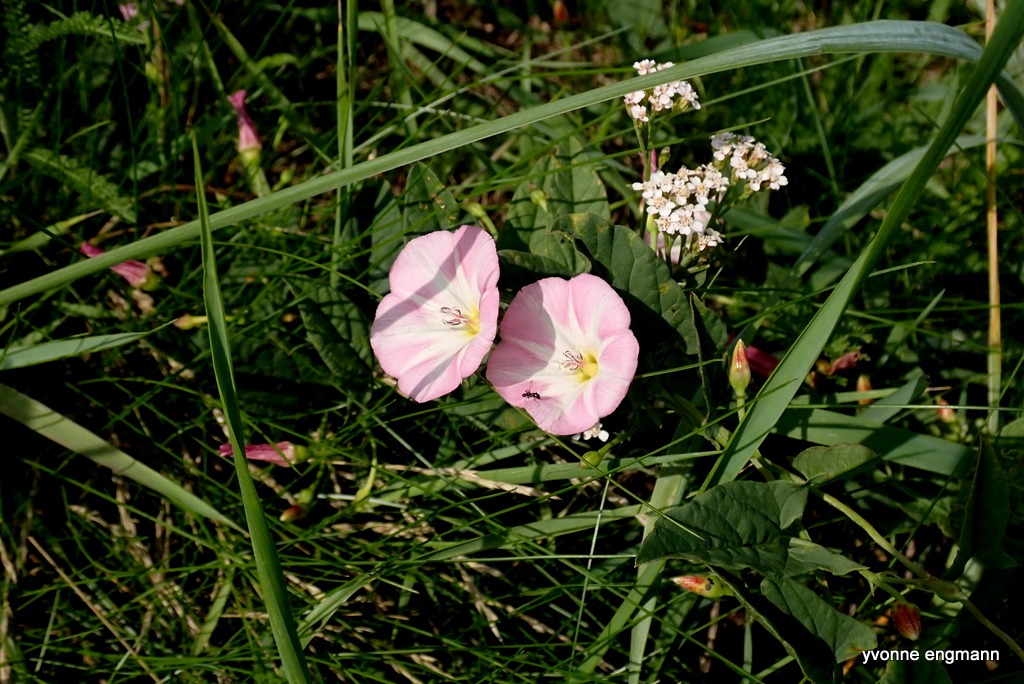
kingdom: Plantae
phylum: Tracheophyta
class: Magnoliopsida
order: Solanales
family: Convolvulaceae
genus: Convolvulus
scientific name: Convolvulus arvensis
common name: Ager-snerle
